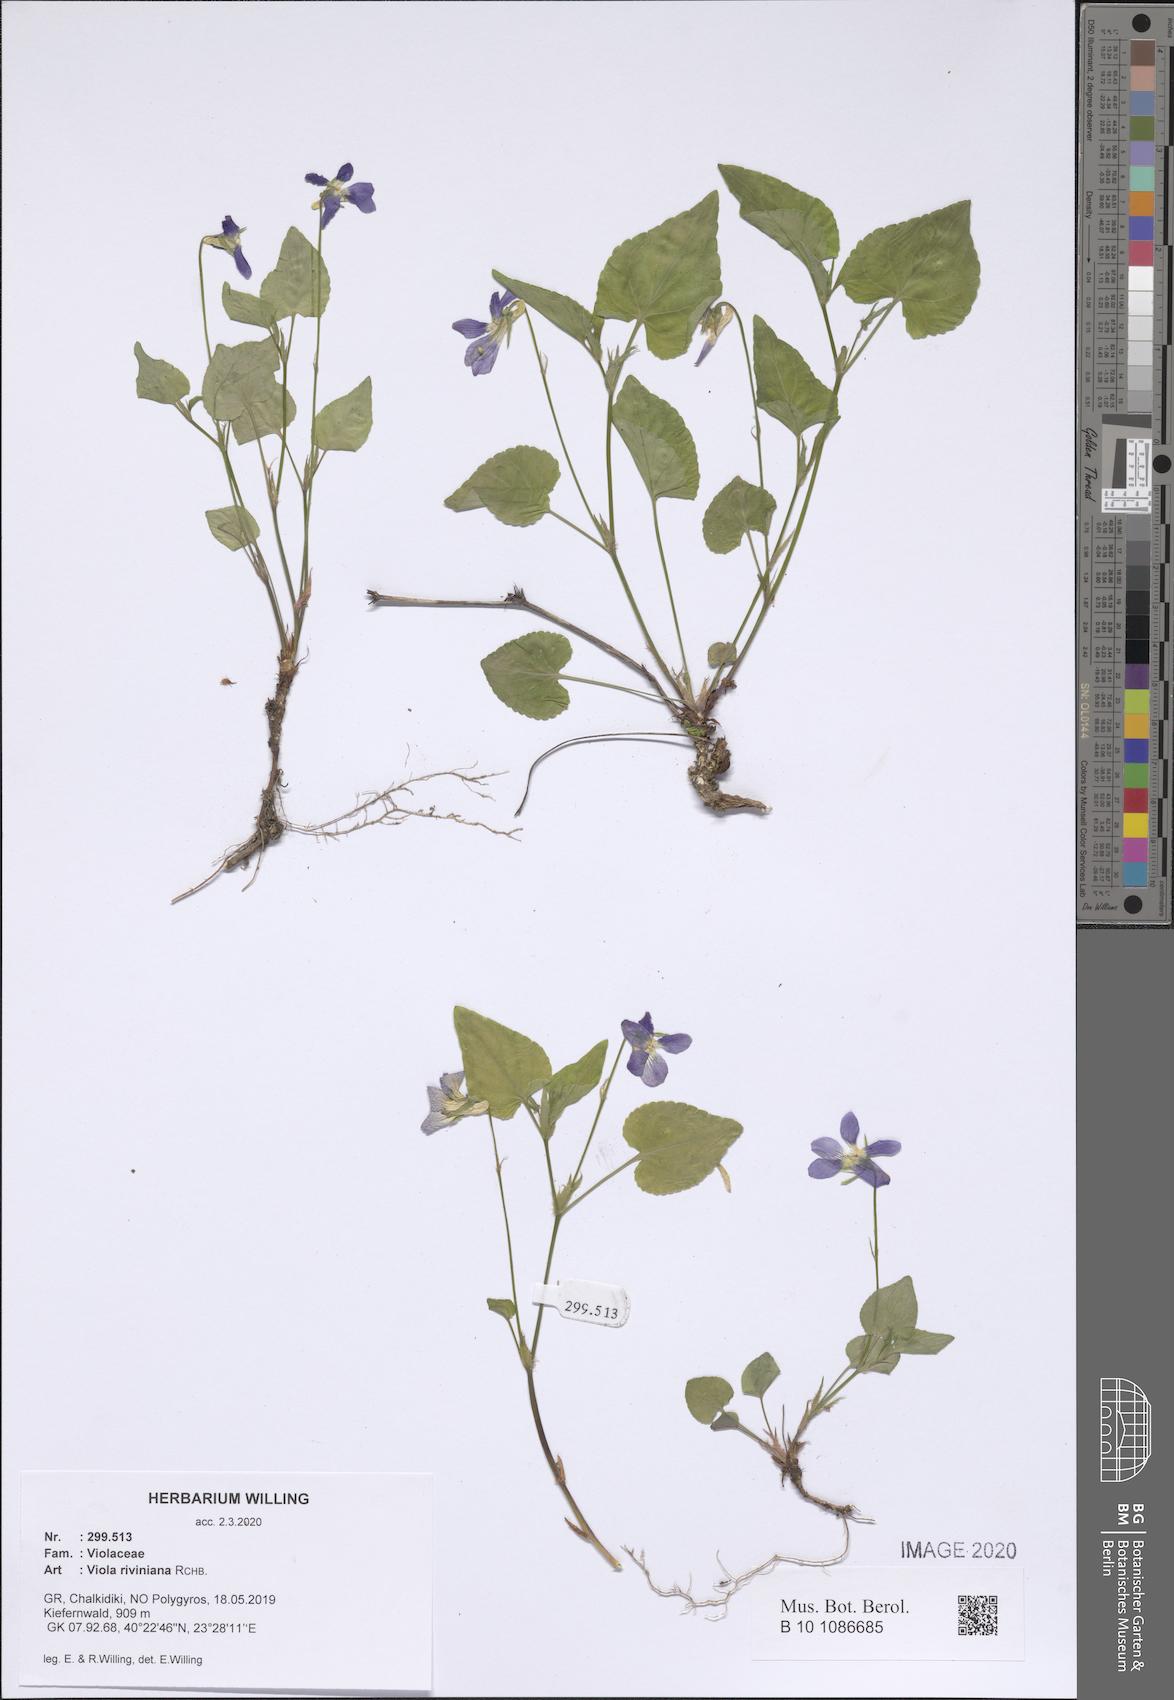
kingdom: Plantae
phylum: Tracheophyta
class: Magnoliopsida
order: Malpighiales
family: Violaceae
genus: Viola
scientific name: Viola riviniana
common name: Common dog-violet
